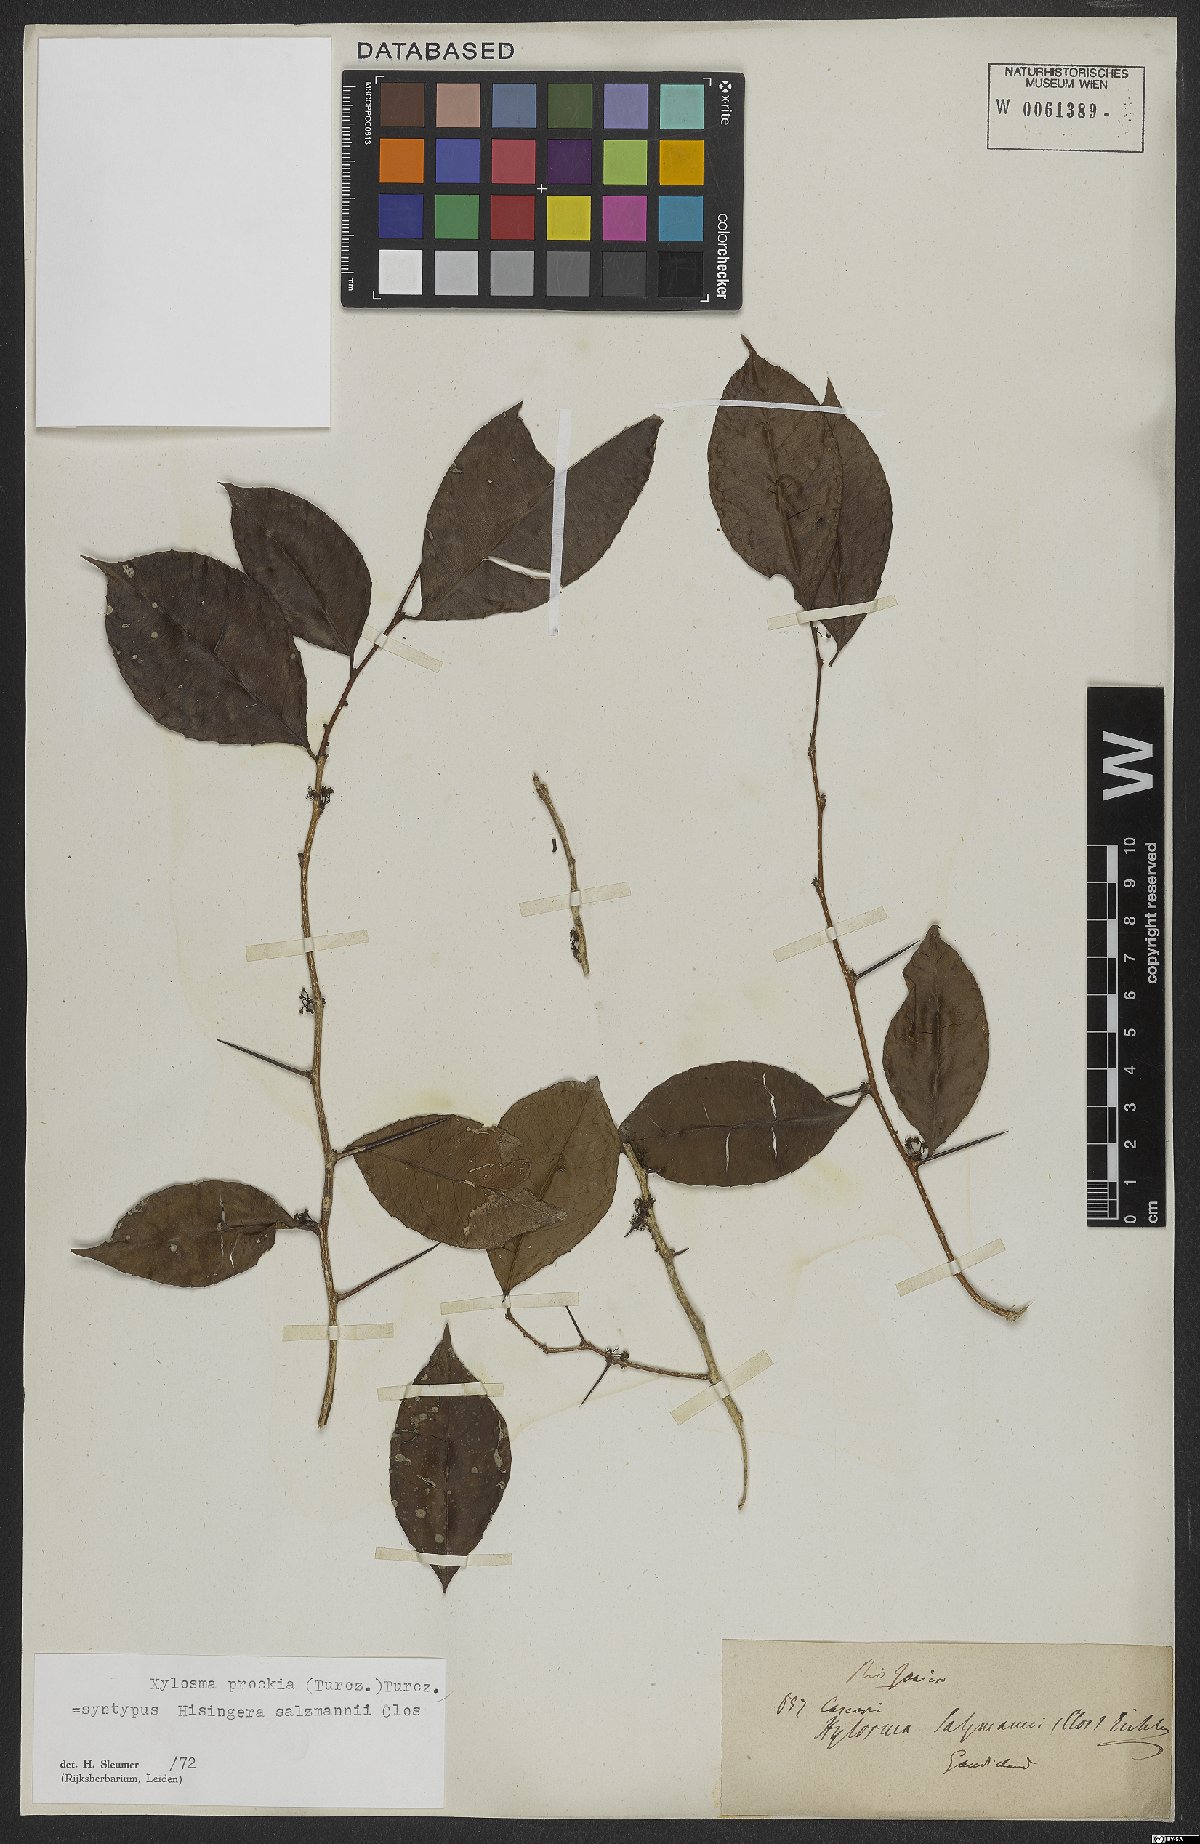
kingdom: Plantae
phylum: Tracheophyta
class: Magnoliopsida
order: Malpighiales
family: Salicaceae
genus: Xylosma
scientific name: Xylosma prockia
